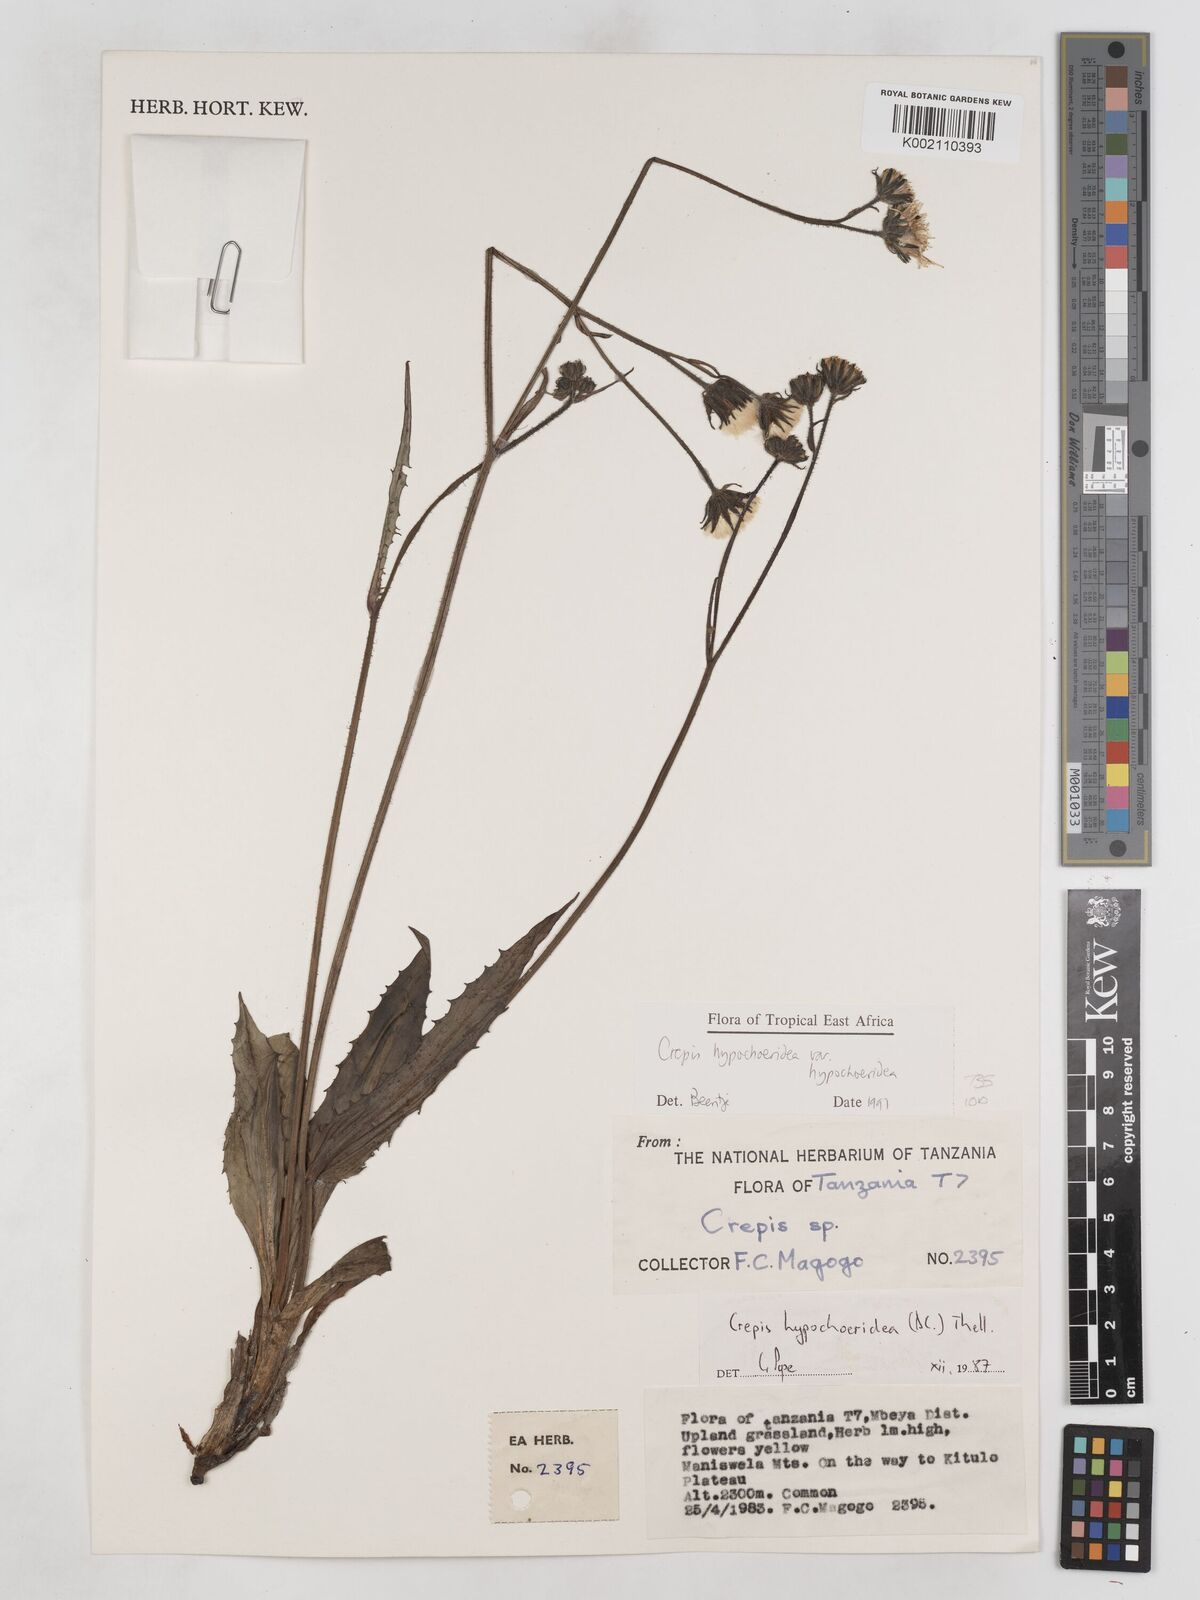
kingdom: Plantae
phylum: Tracheophyta
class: Magnoliopsida
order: Asterales
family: Asteraceae
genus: Crepis
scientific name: Crepis hypochoeridea
